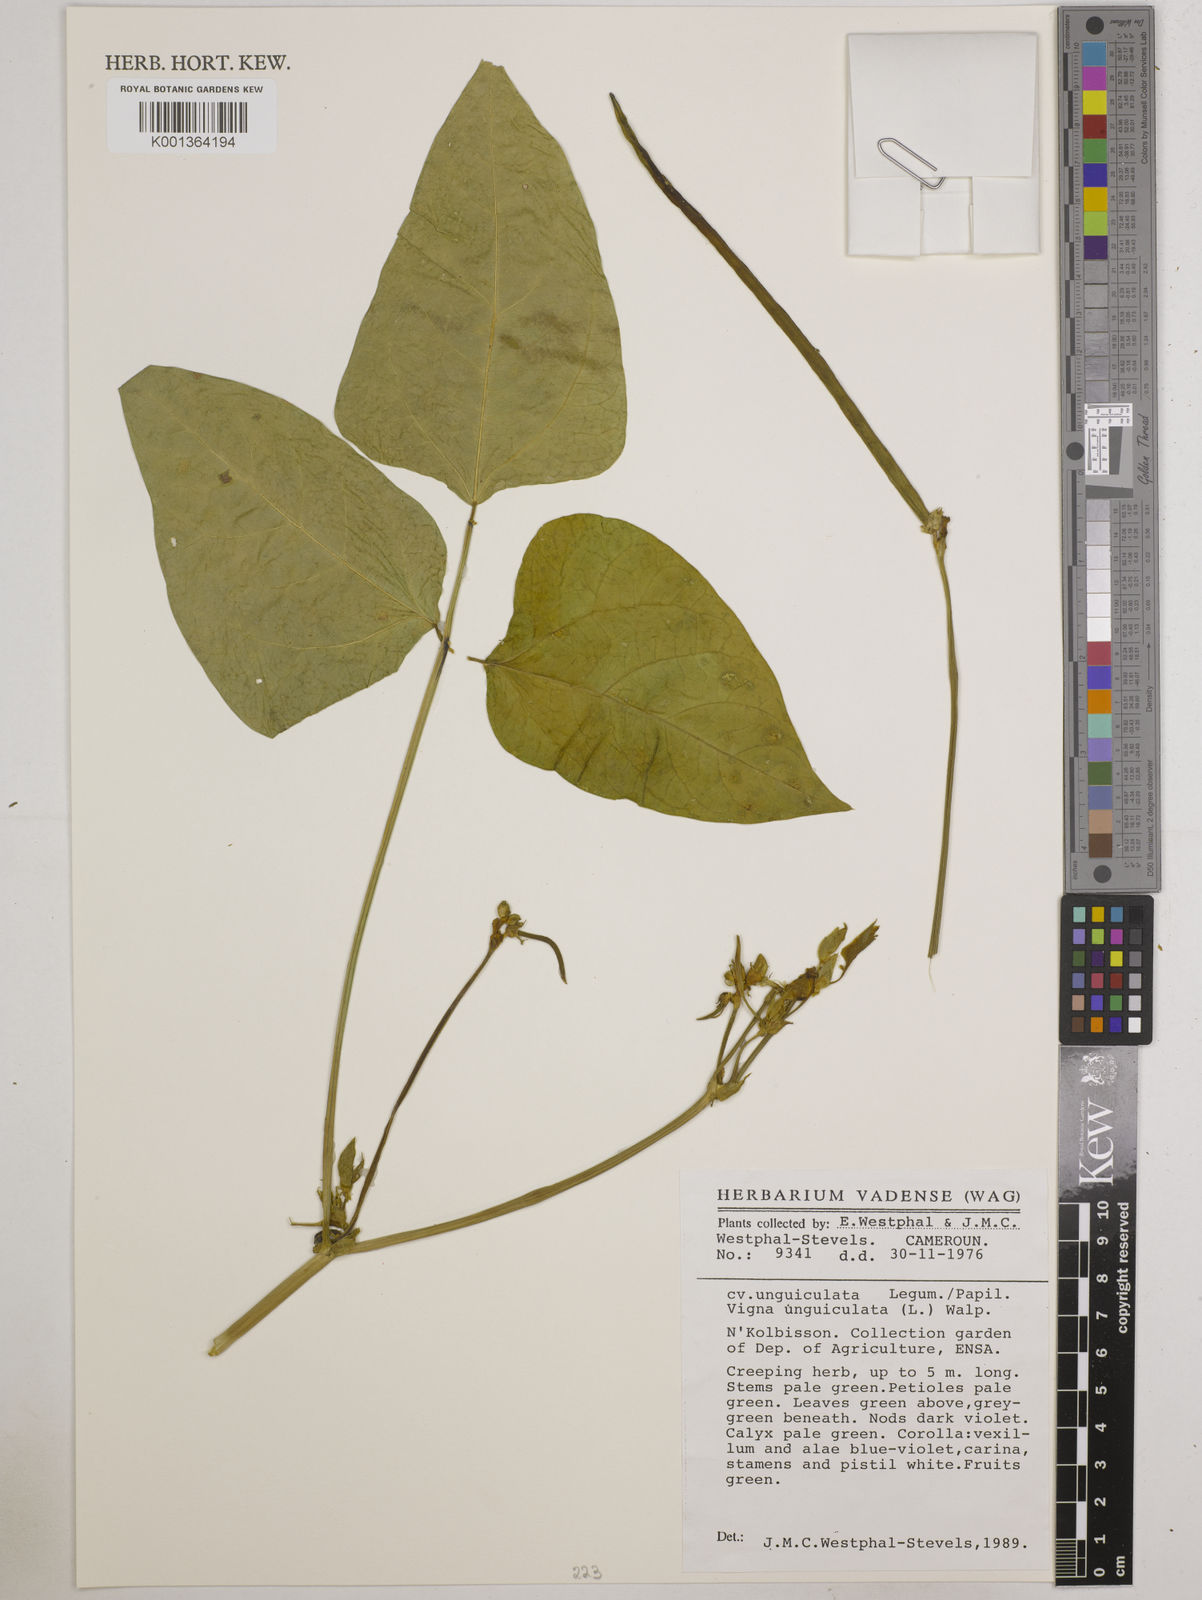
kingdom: Plantae
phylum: Tracheophyta
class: Magnoliopsida
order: Fabales
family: Fabaceae
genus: Vigna
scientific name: Vigna unguiculata
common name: Cowpea
